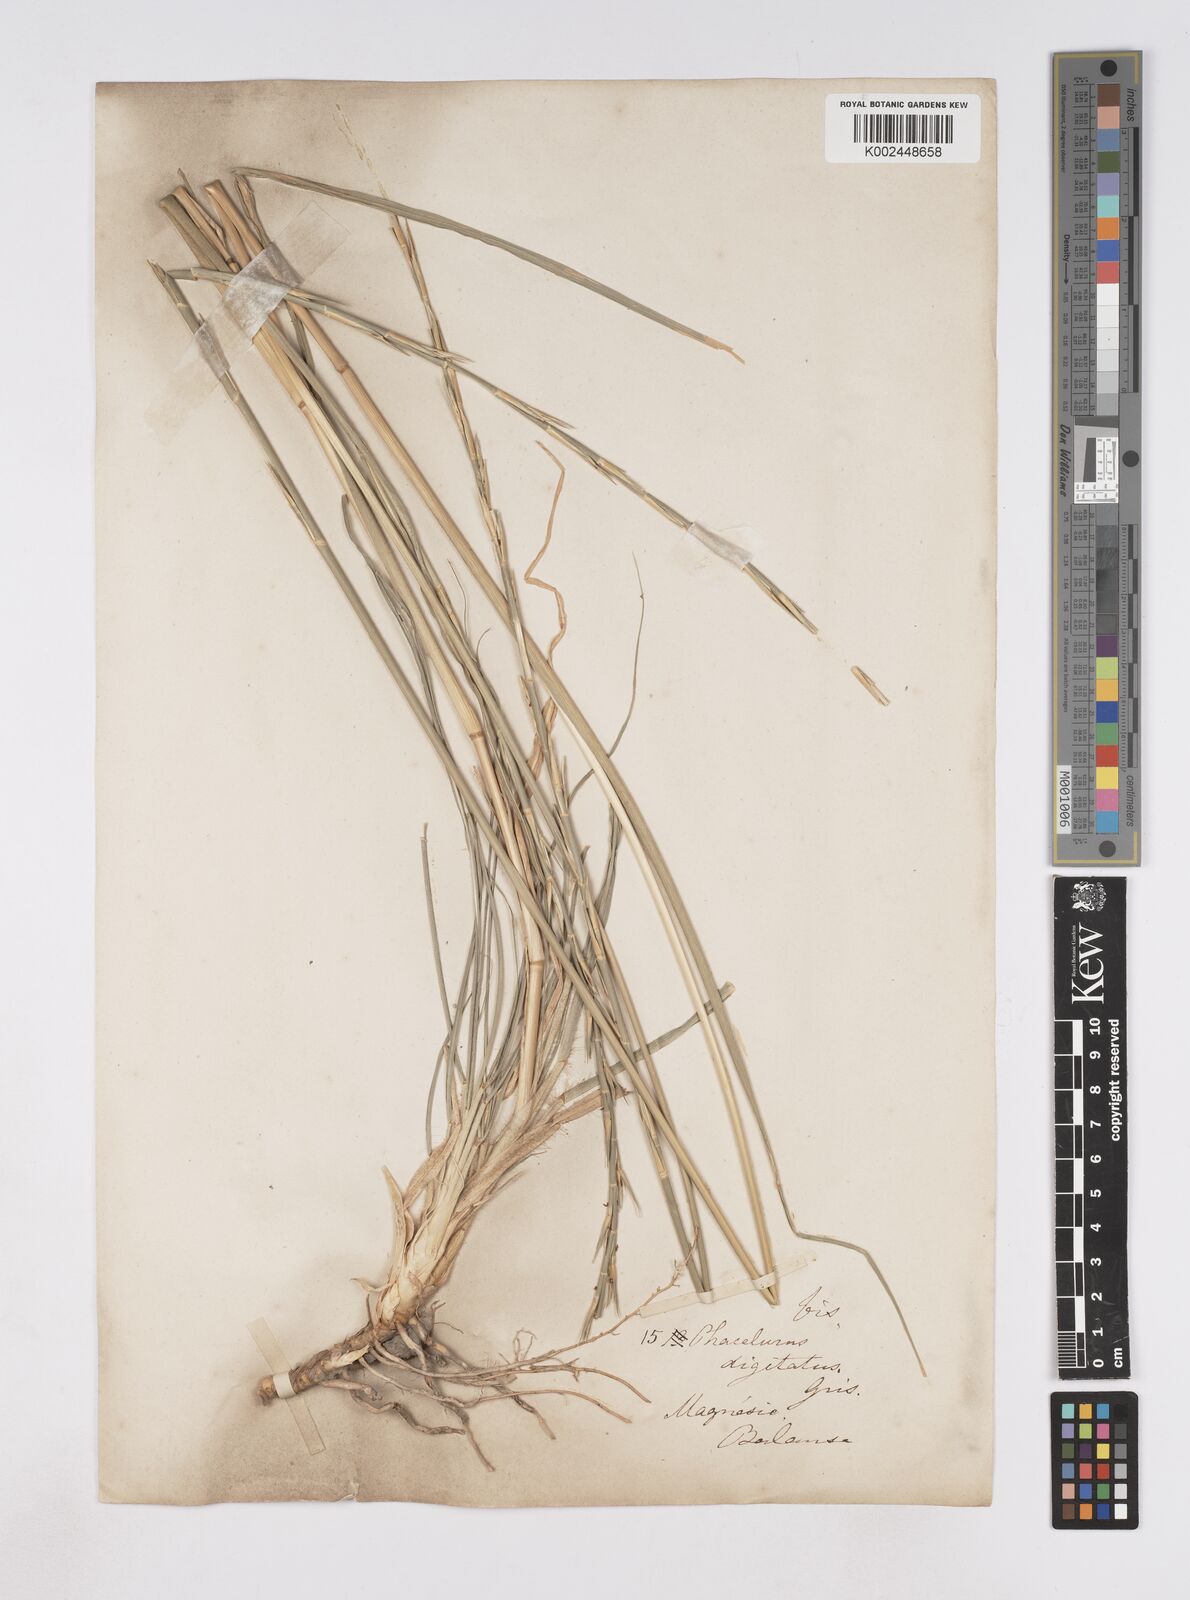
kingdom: Plantae
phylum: Tracheophyta
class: Liliopsida
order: Poales
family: Poaceae
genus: Phacelurus
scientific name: Phacelurus digitatus
